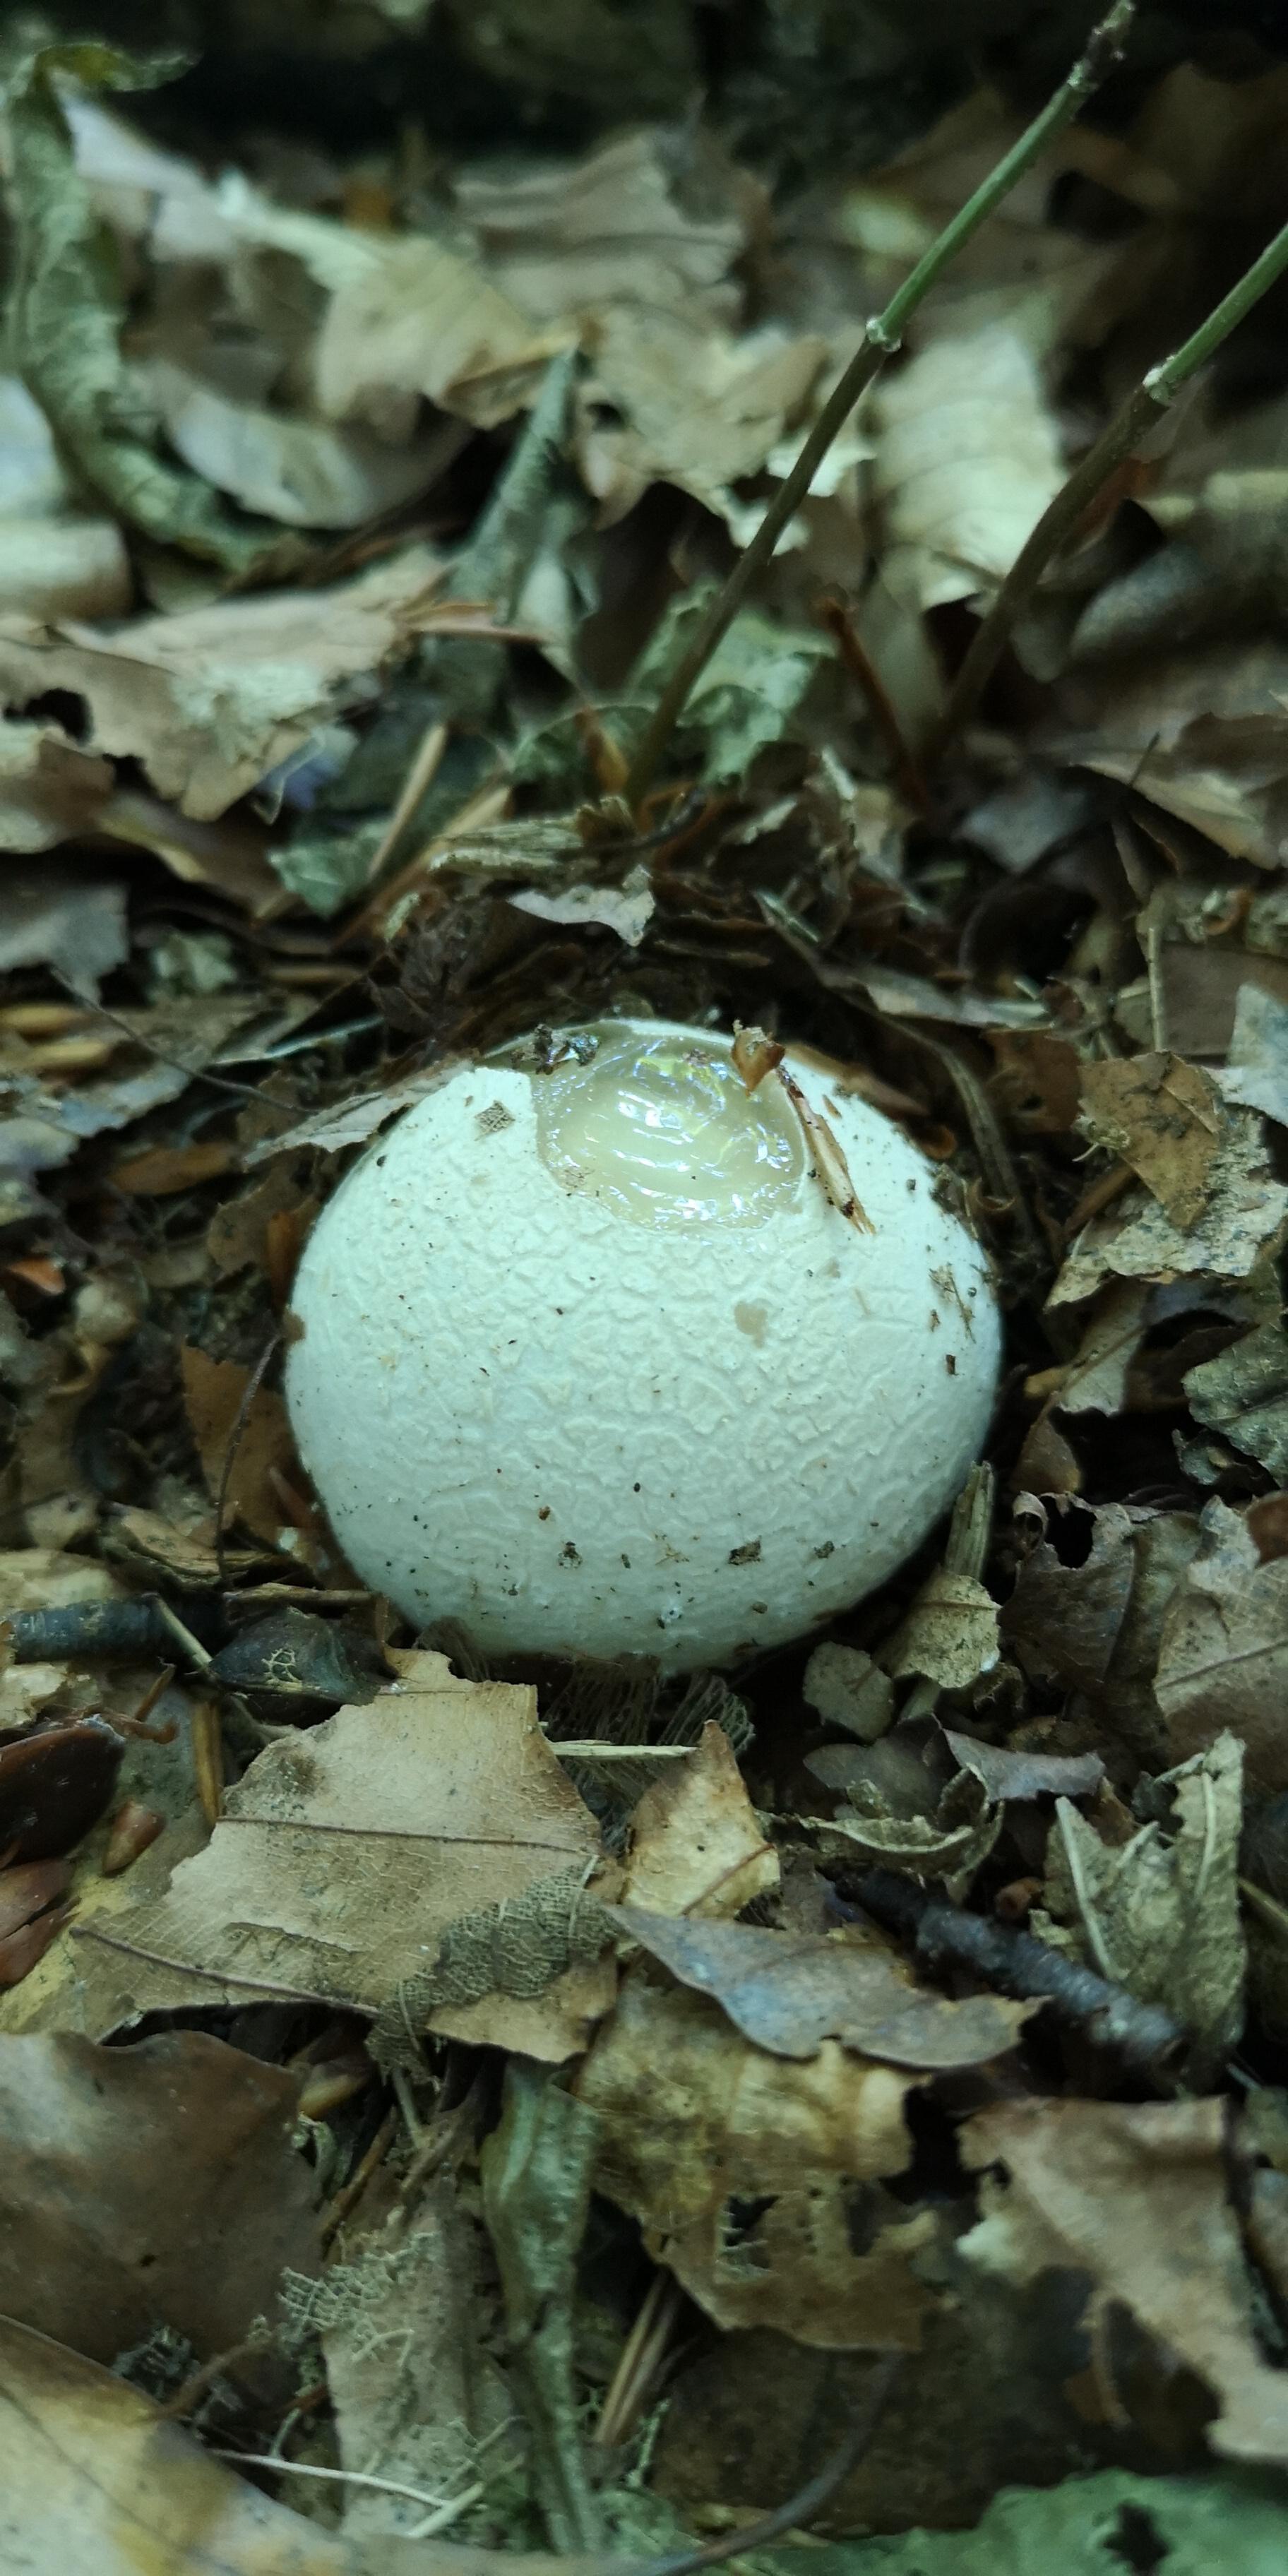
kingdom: Fungi
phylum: Basidiomycota
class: Agaricomycetes
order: Phallales
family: Phallaceae
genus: Phallus
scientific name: Phallus impudicus
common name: almindelig stinksvamp
